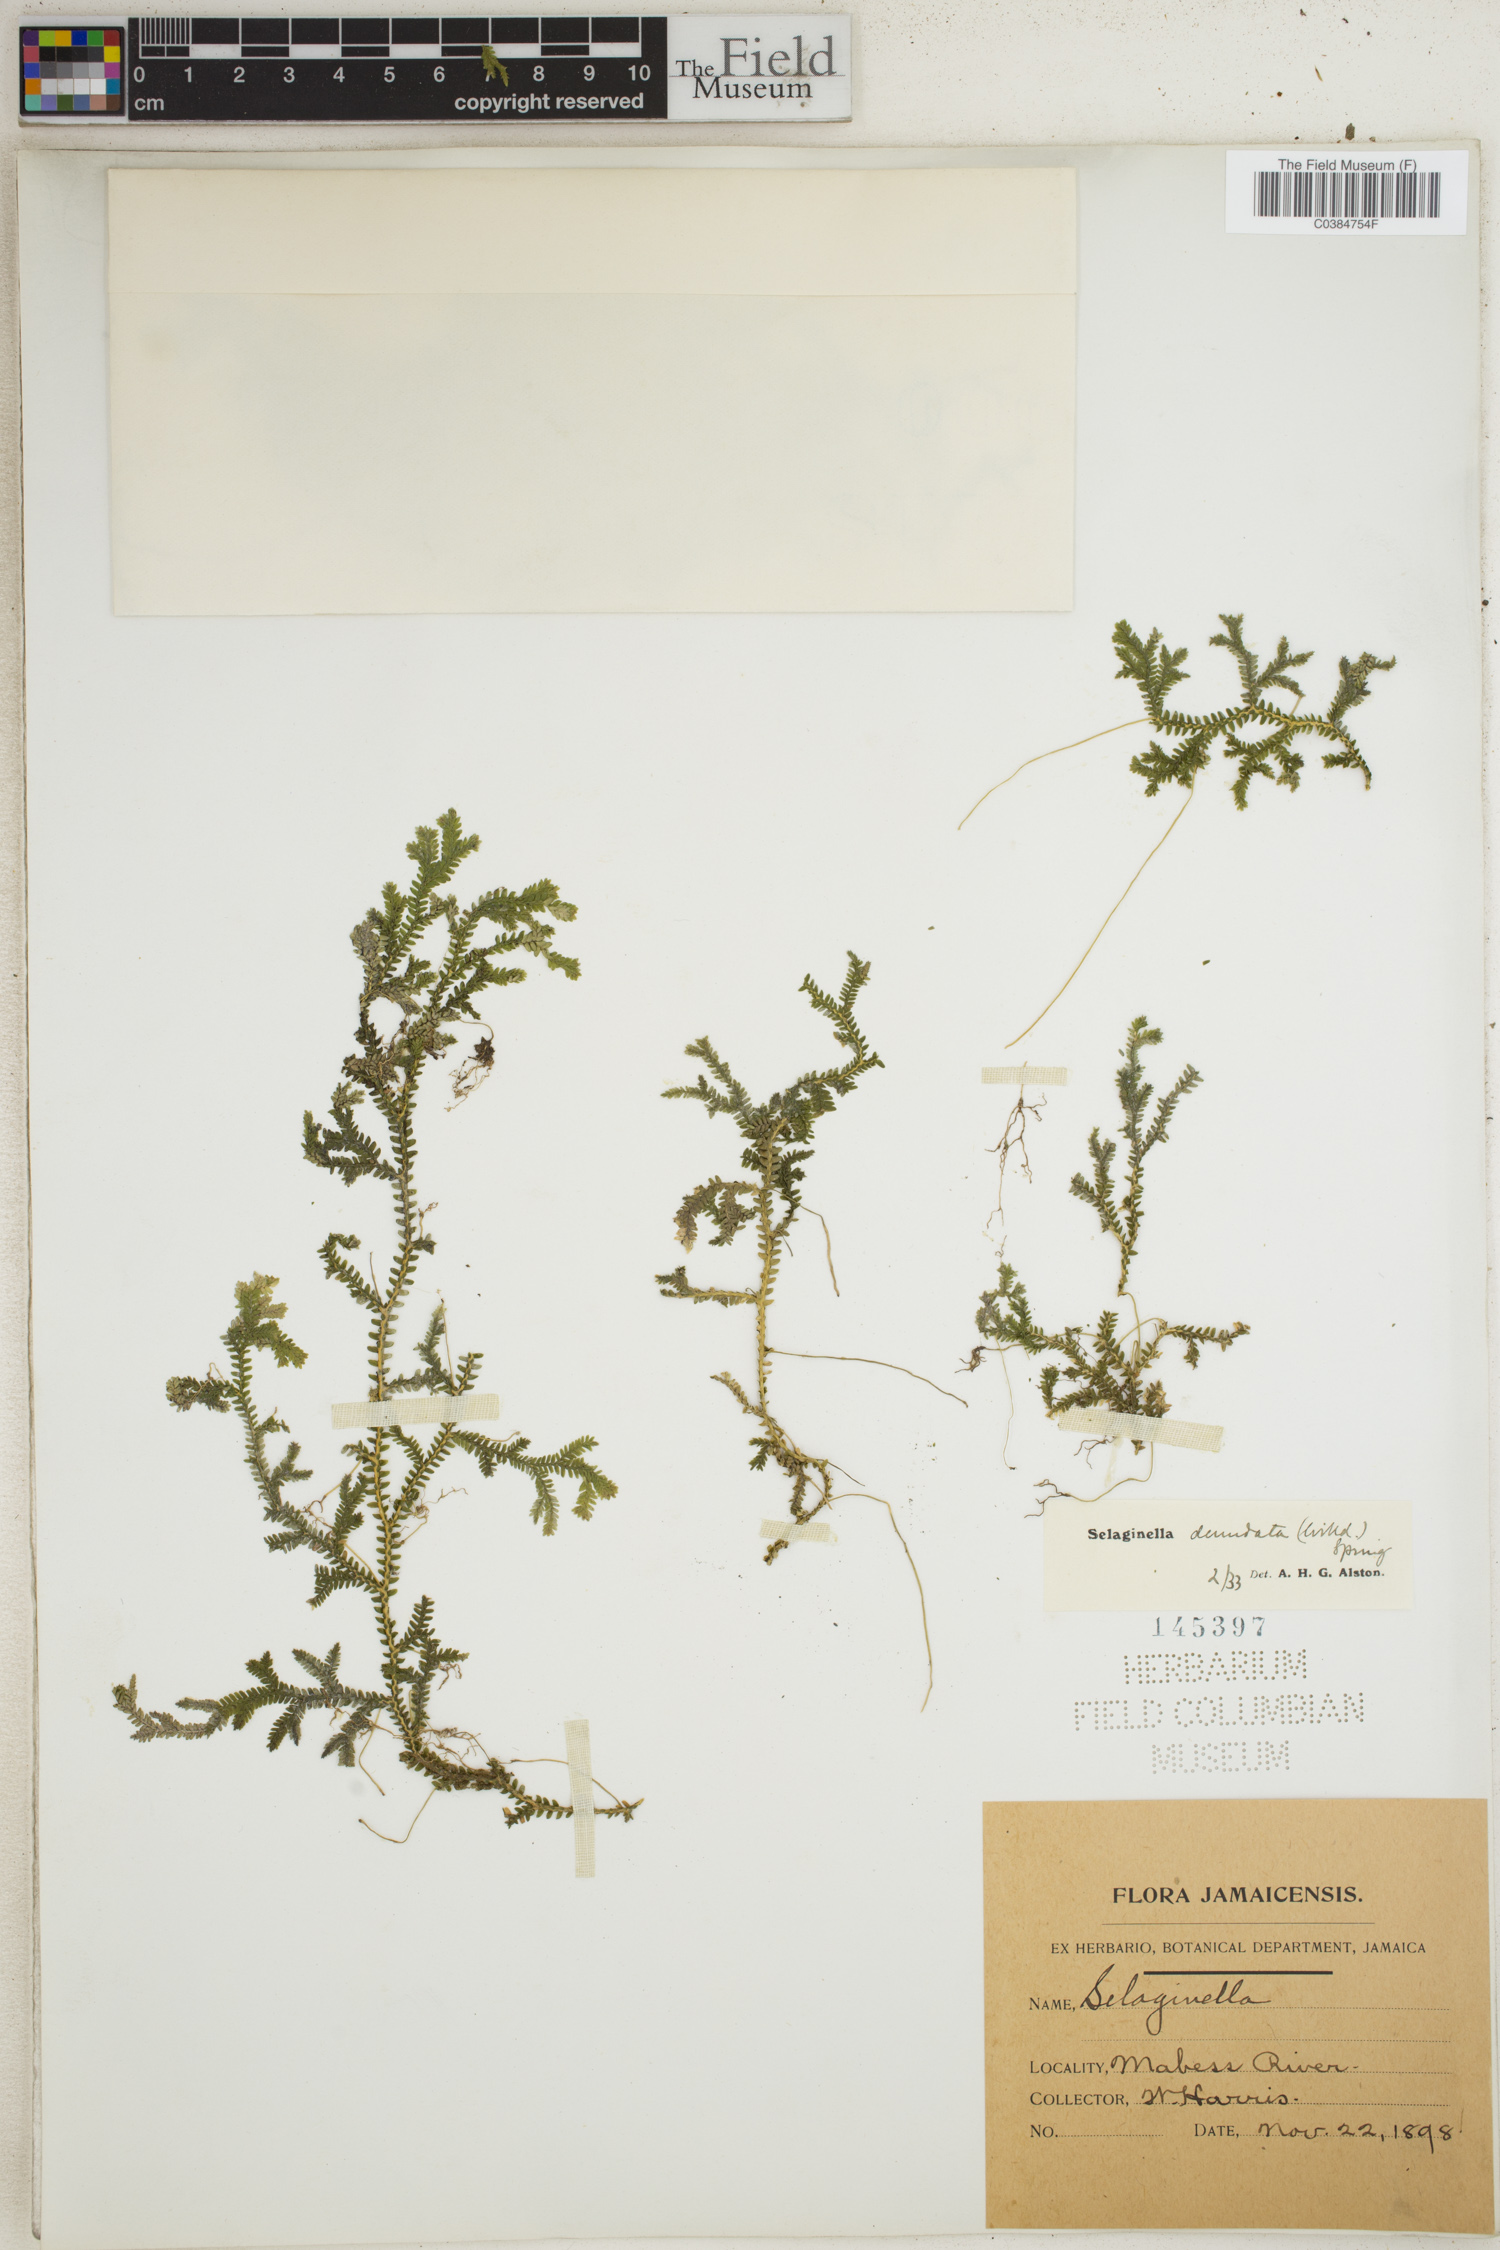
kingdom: Plantae
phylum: Tracheophyta
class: Lycopodiopsida
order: Selaginellales
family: Selaginellaceae
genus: Selaginella
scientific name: Selaginella denudata
